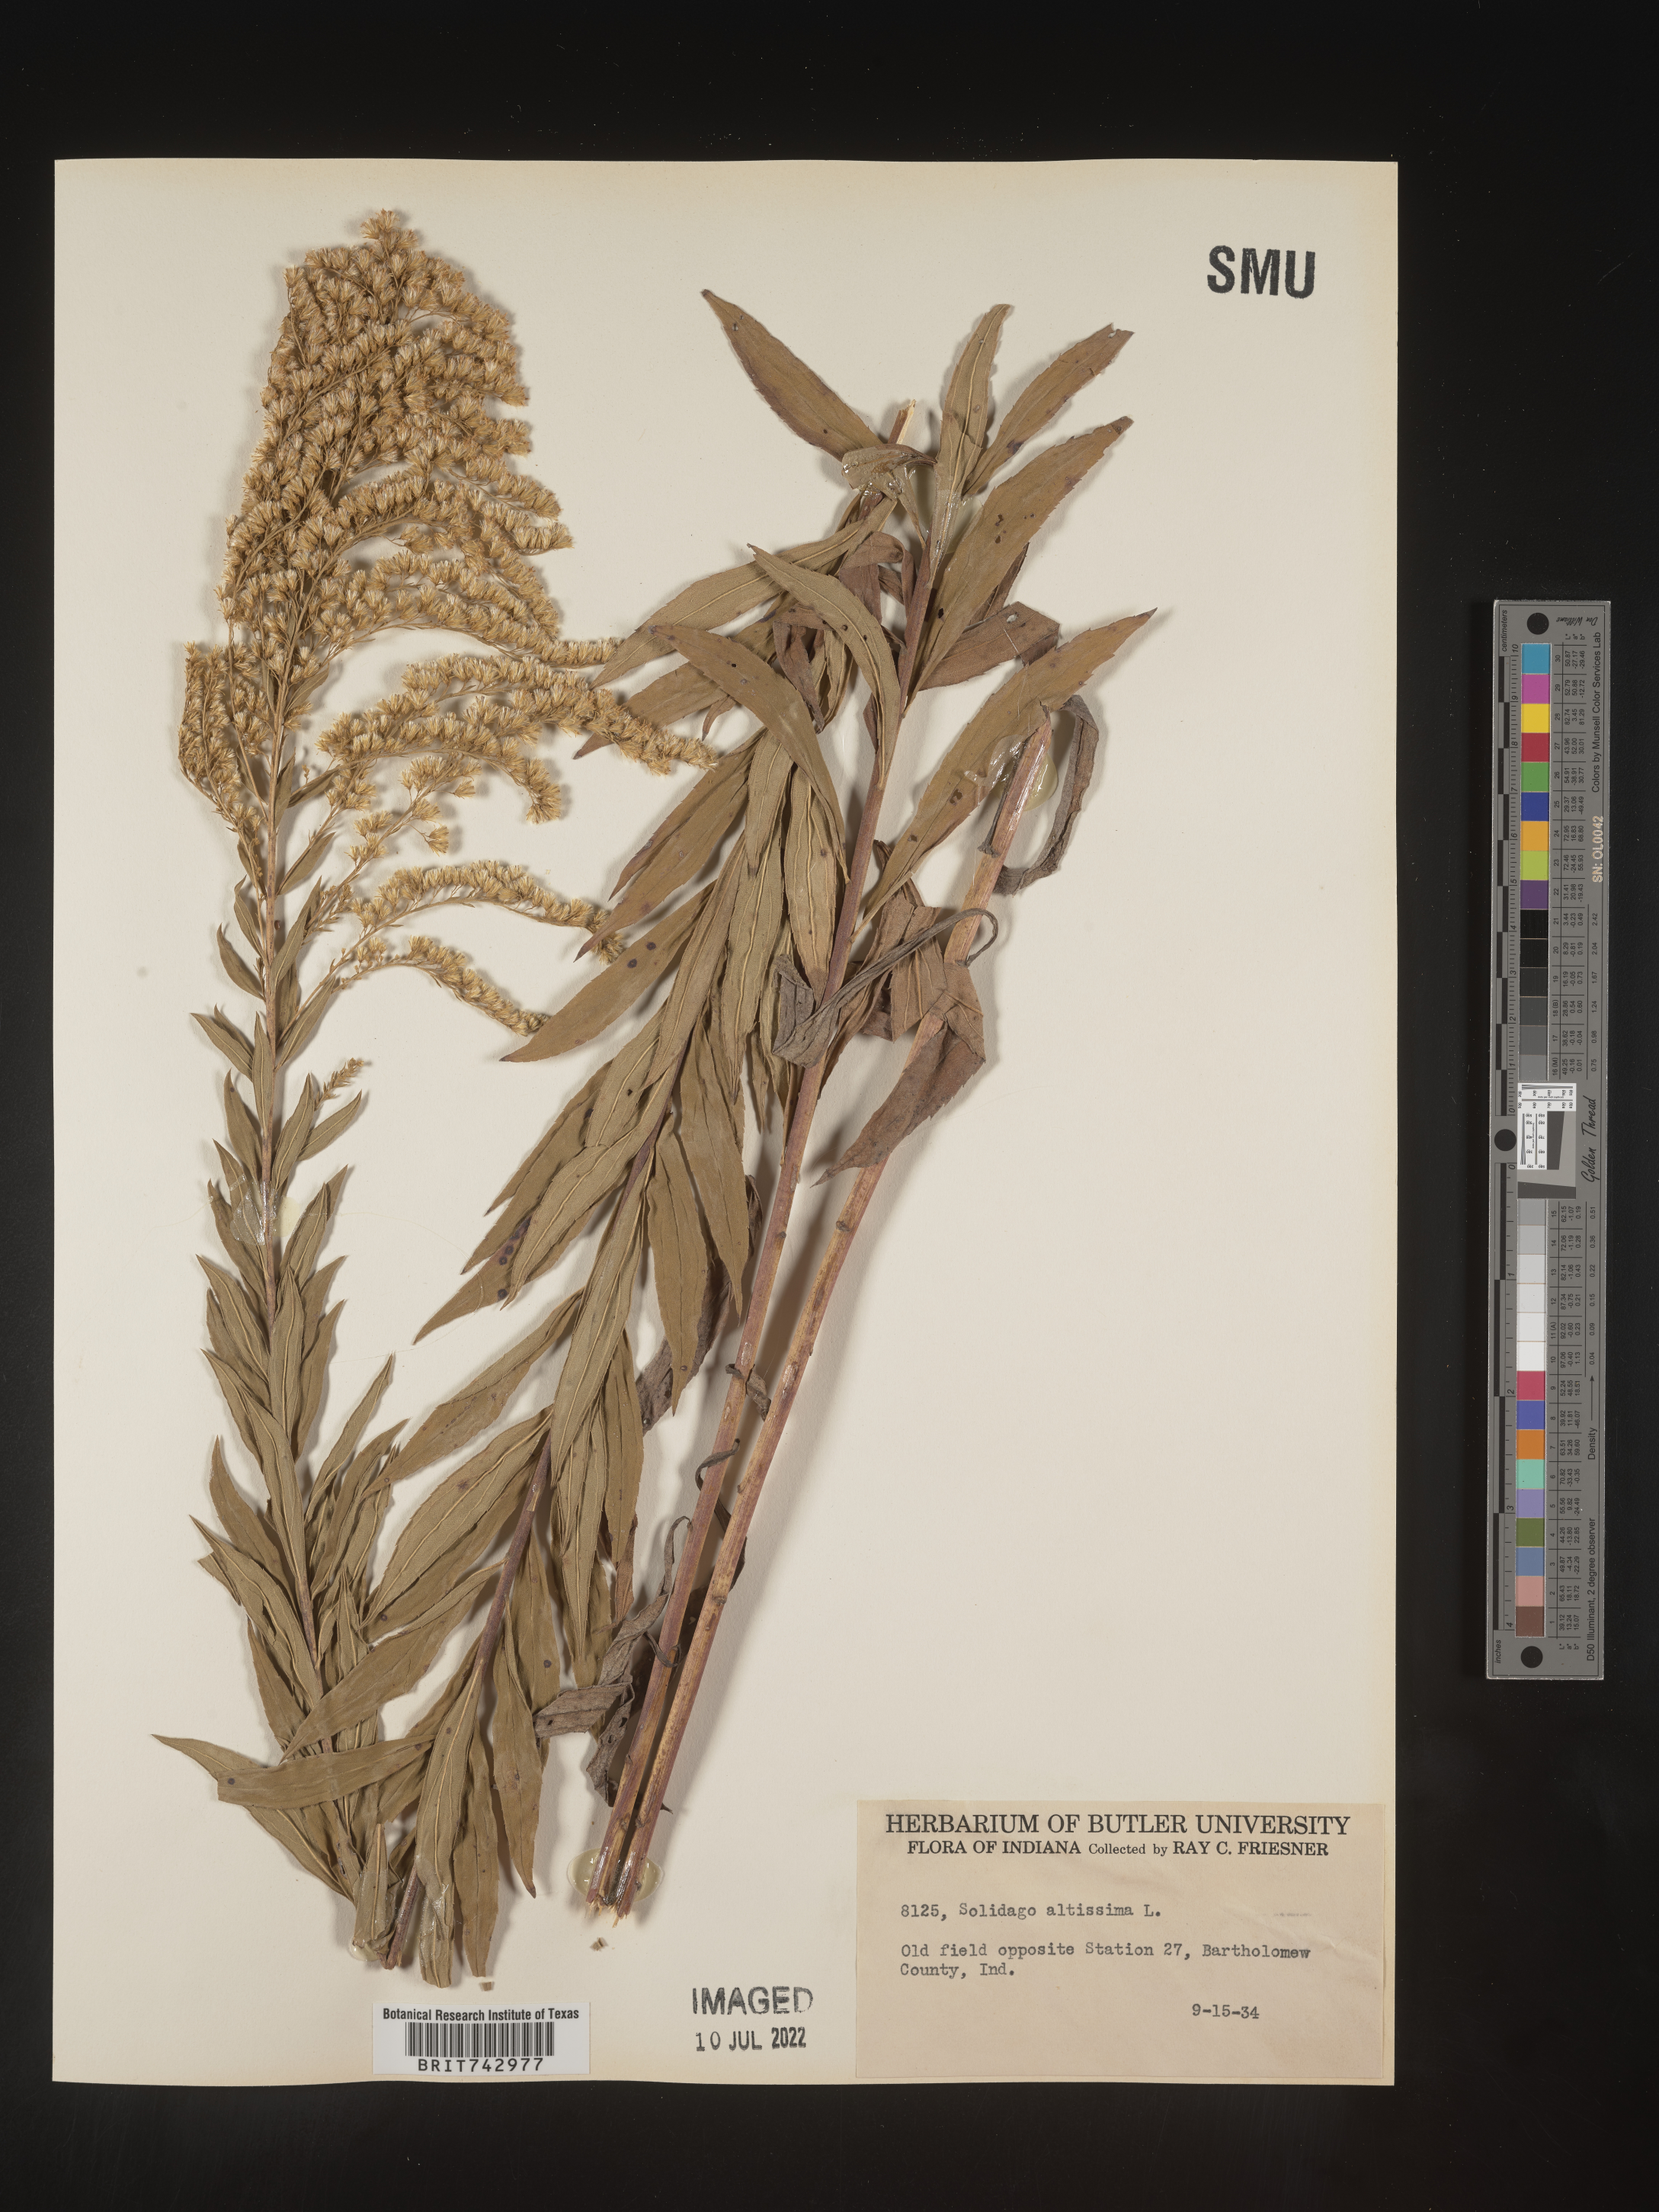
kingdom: Plantae
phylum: Tracheophyta
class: Magnoliopsida
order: Asterales
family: Asteraceae
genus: Solidago
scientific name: Solidago altissima
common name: Late goldenrod
